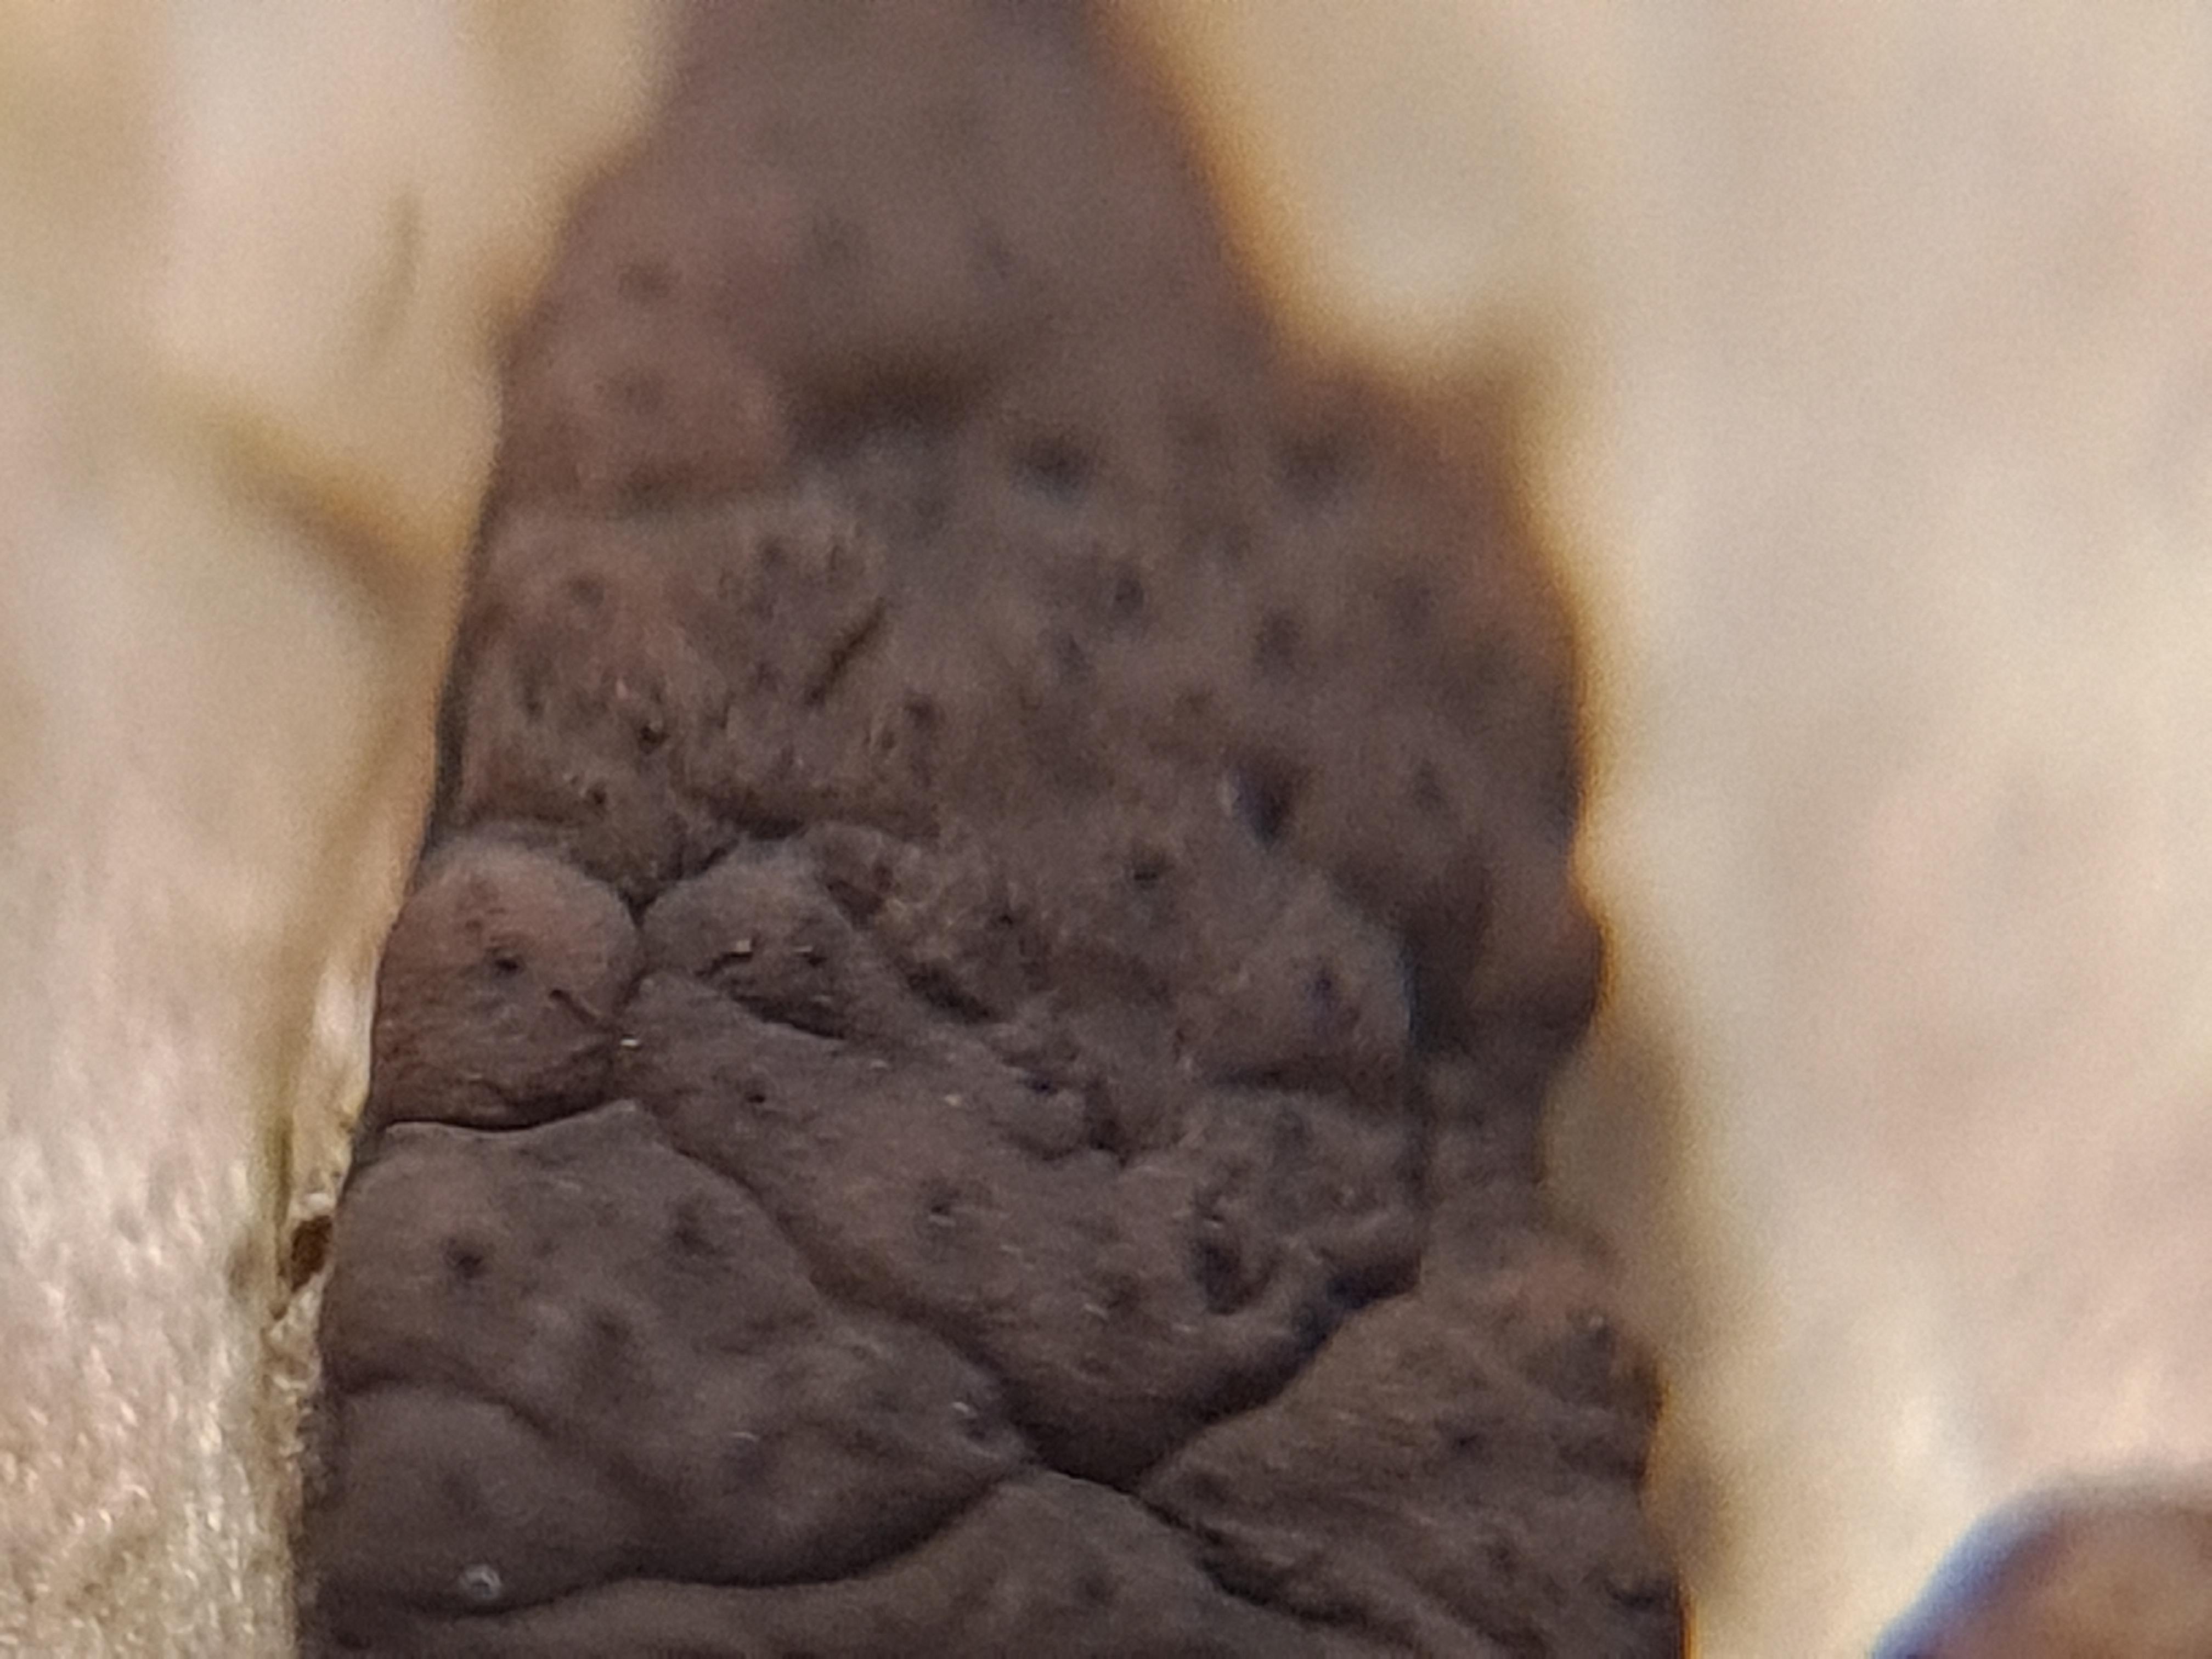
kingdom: Fungi
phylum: Ascomycota
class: Sordariomycetes
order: Xylariales
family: Hypoxylaceae
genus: Jackrogersella
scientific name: Jackrogersella multiformis
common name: foranderlig kulbær
